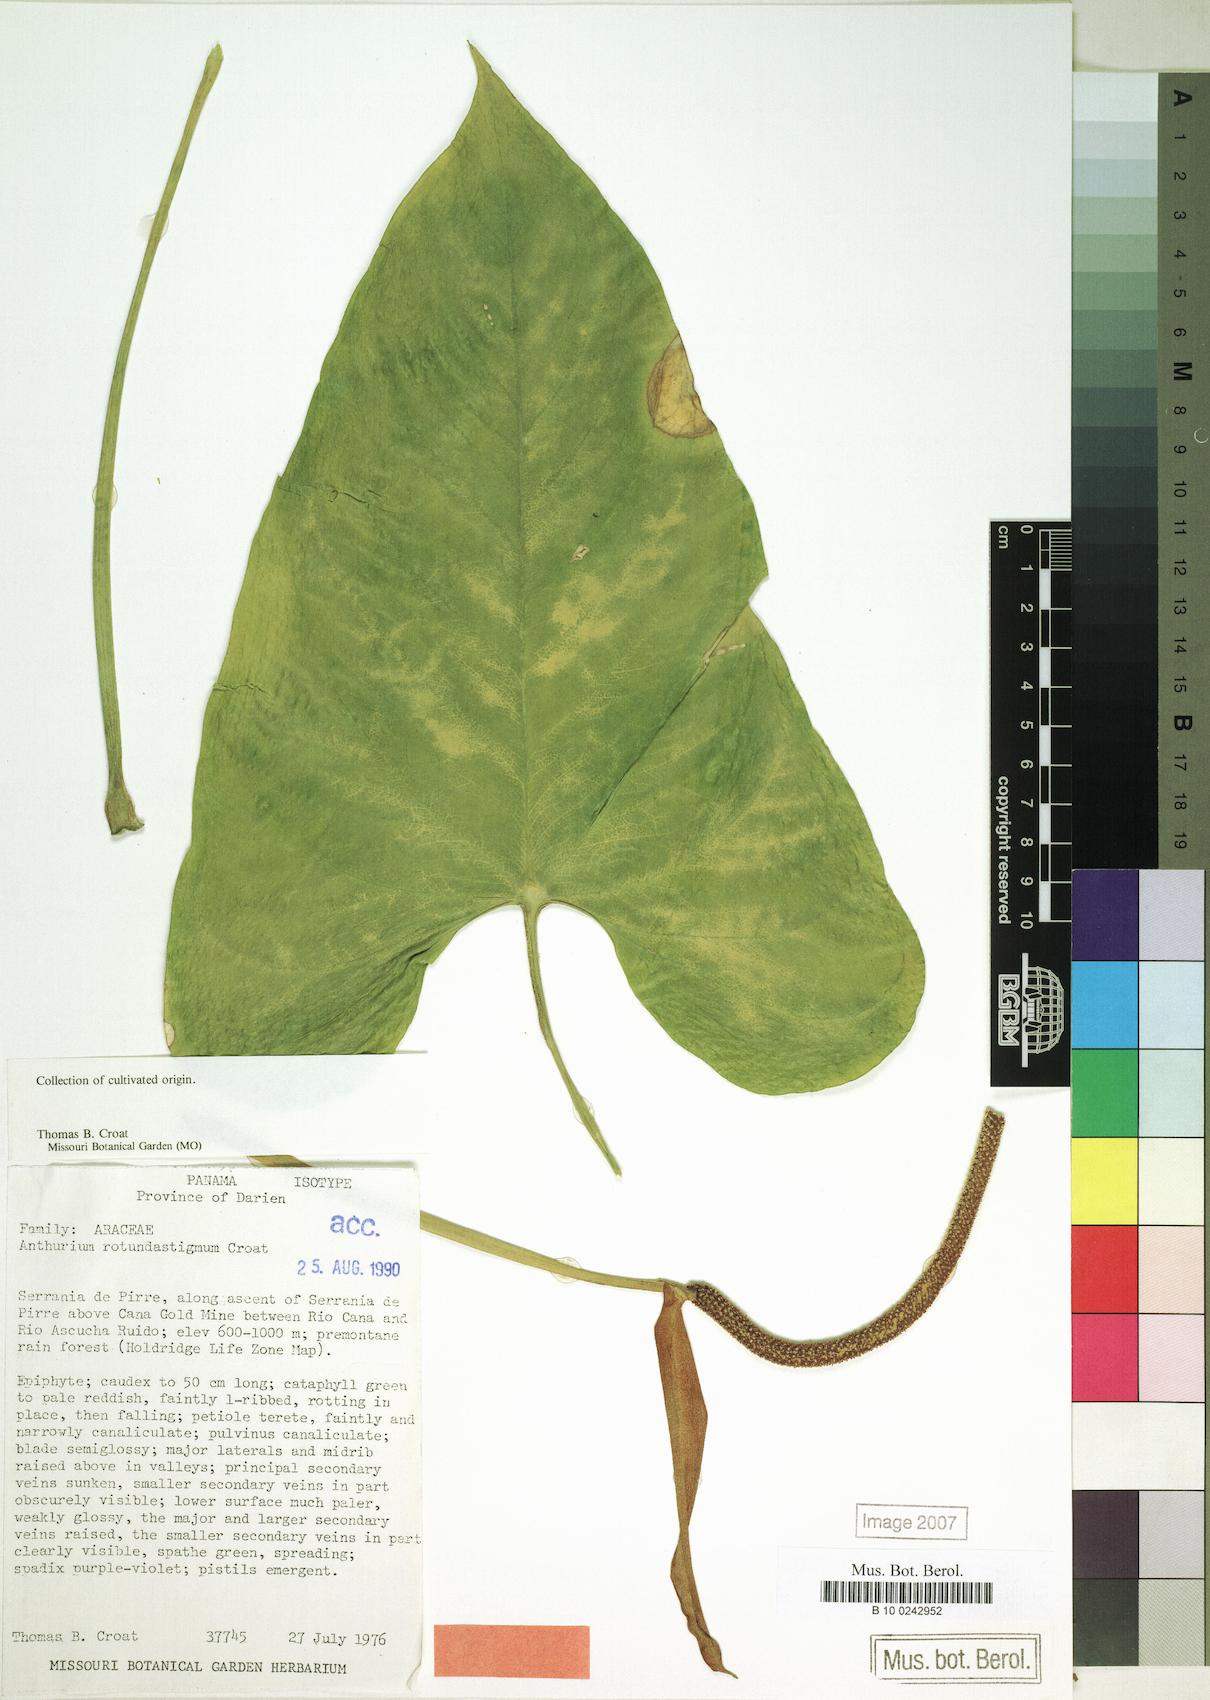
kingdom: Plantae
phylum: Tracheophyta
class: Liliopsida
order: Alismatales
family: Araceae
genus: Anthurium
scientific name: Anthurium rotundistigmatum
